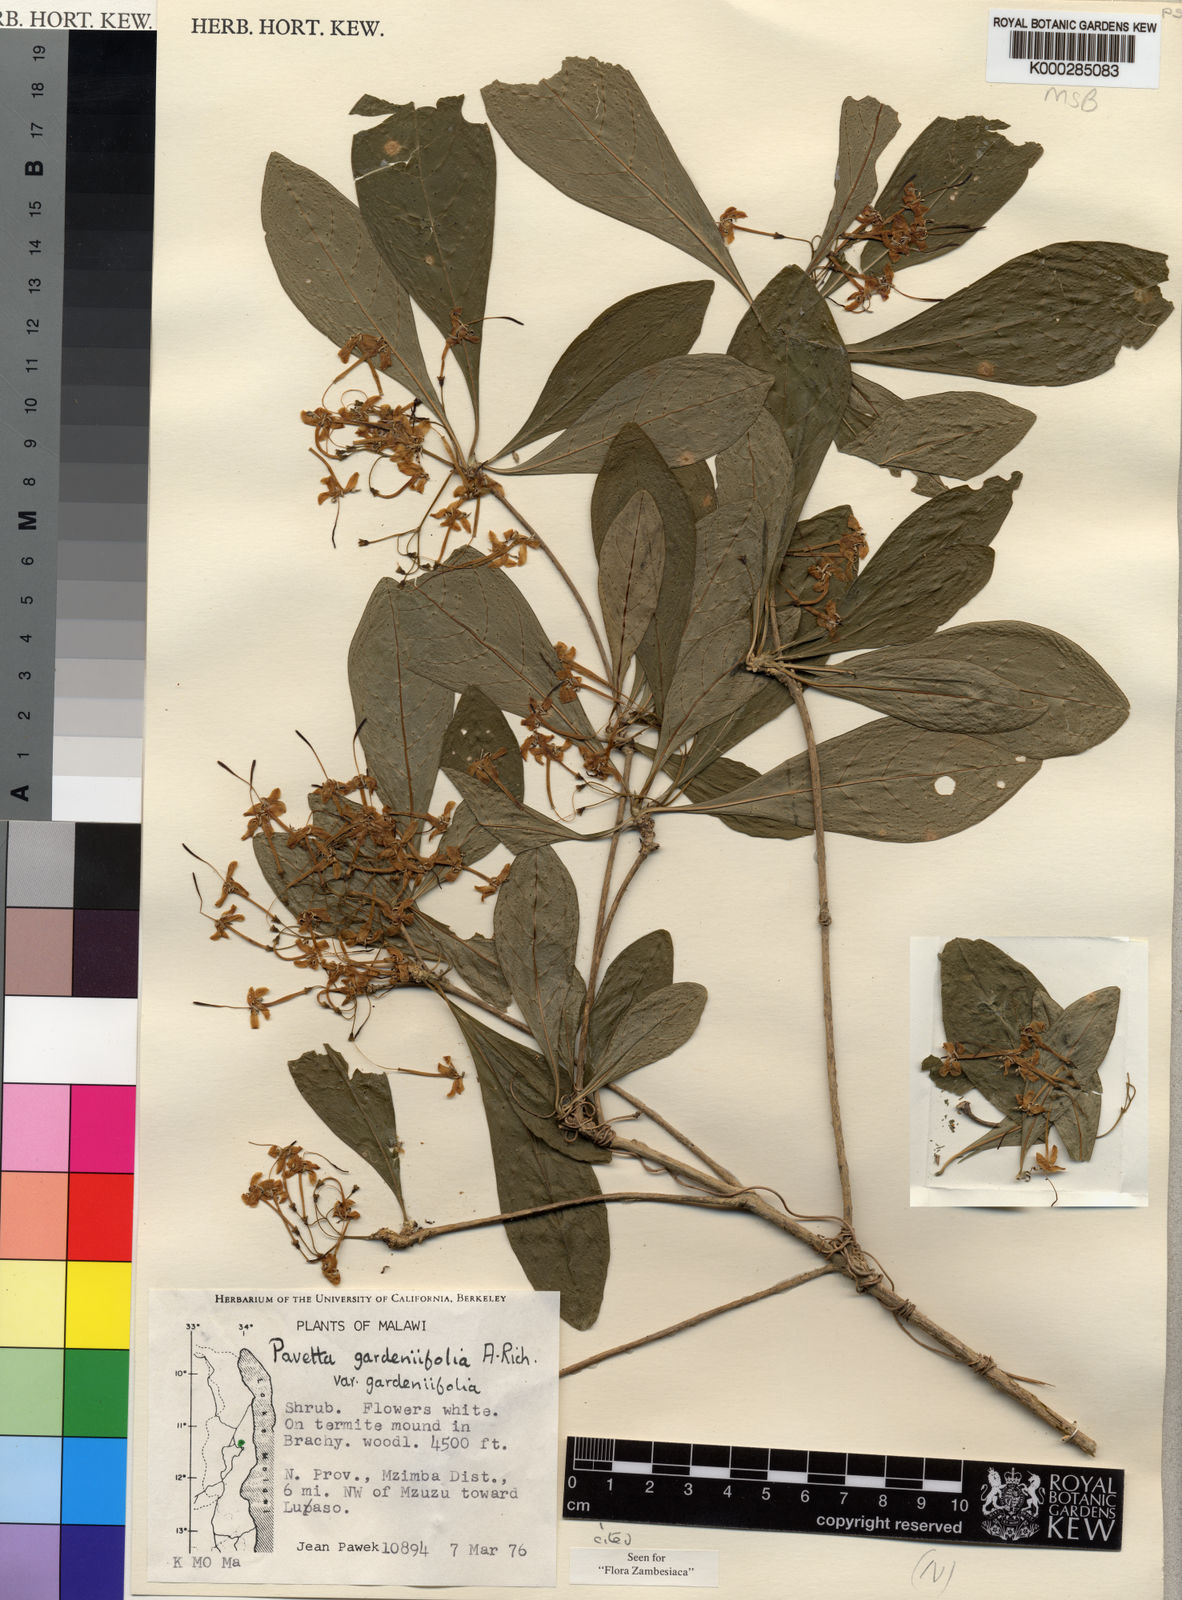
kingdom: Plantae
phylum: Tracheophyta
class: Magnoliopsida
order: Gentianales
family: Rubiaceae
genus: Pavetta
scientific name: Pavetta gardeniifolia
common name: Common brides-bush
